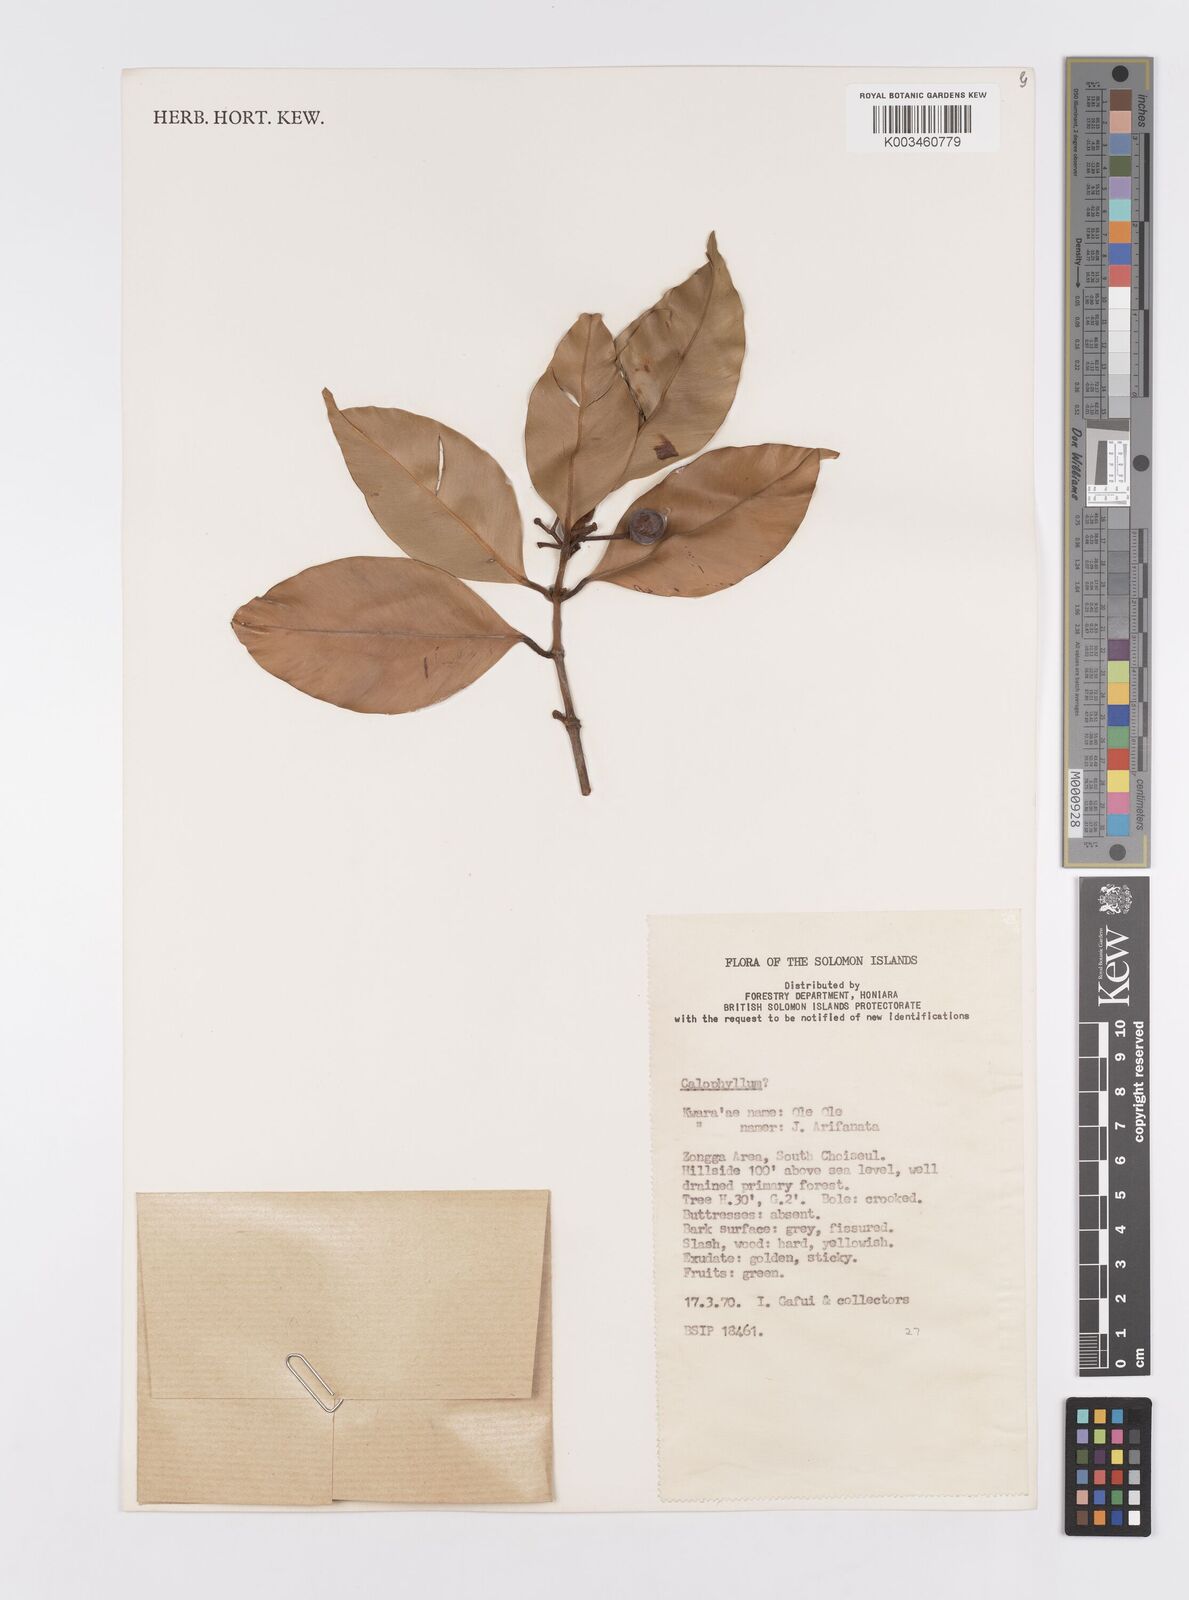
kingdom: Plantae
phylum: Tracheophyta
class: Magnoliopsida
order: Malpighiales
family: Calophyllaceae
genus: Calophyllum
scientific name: Calophyllum
